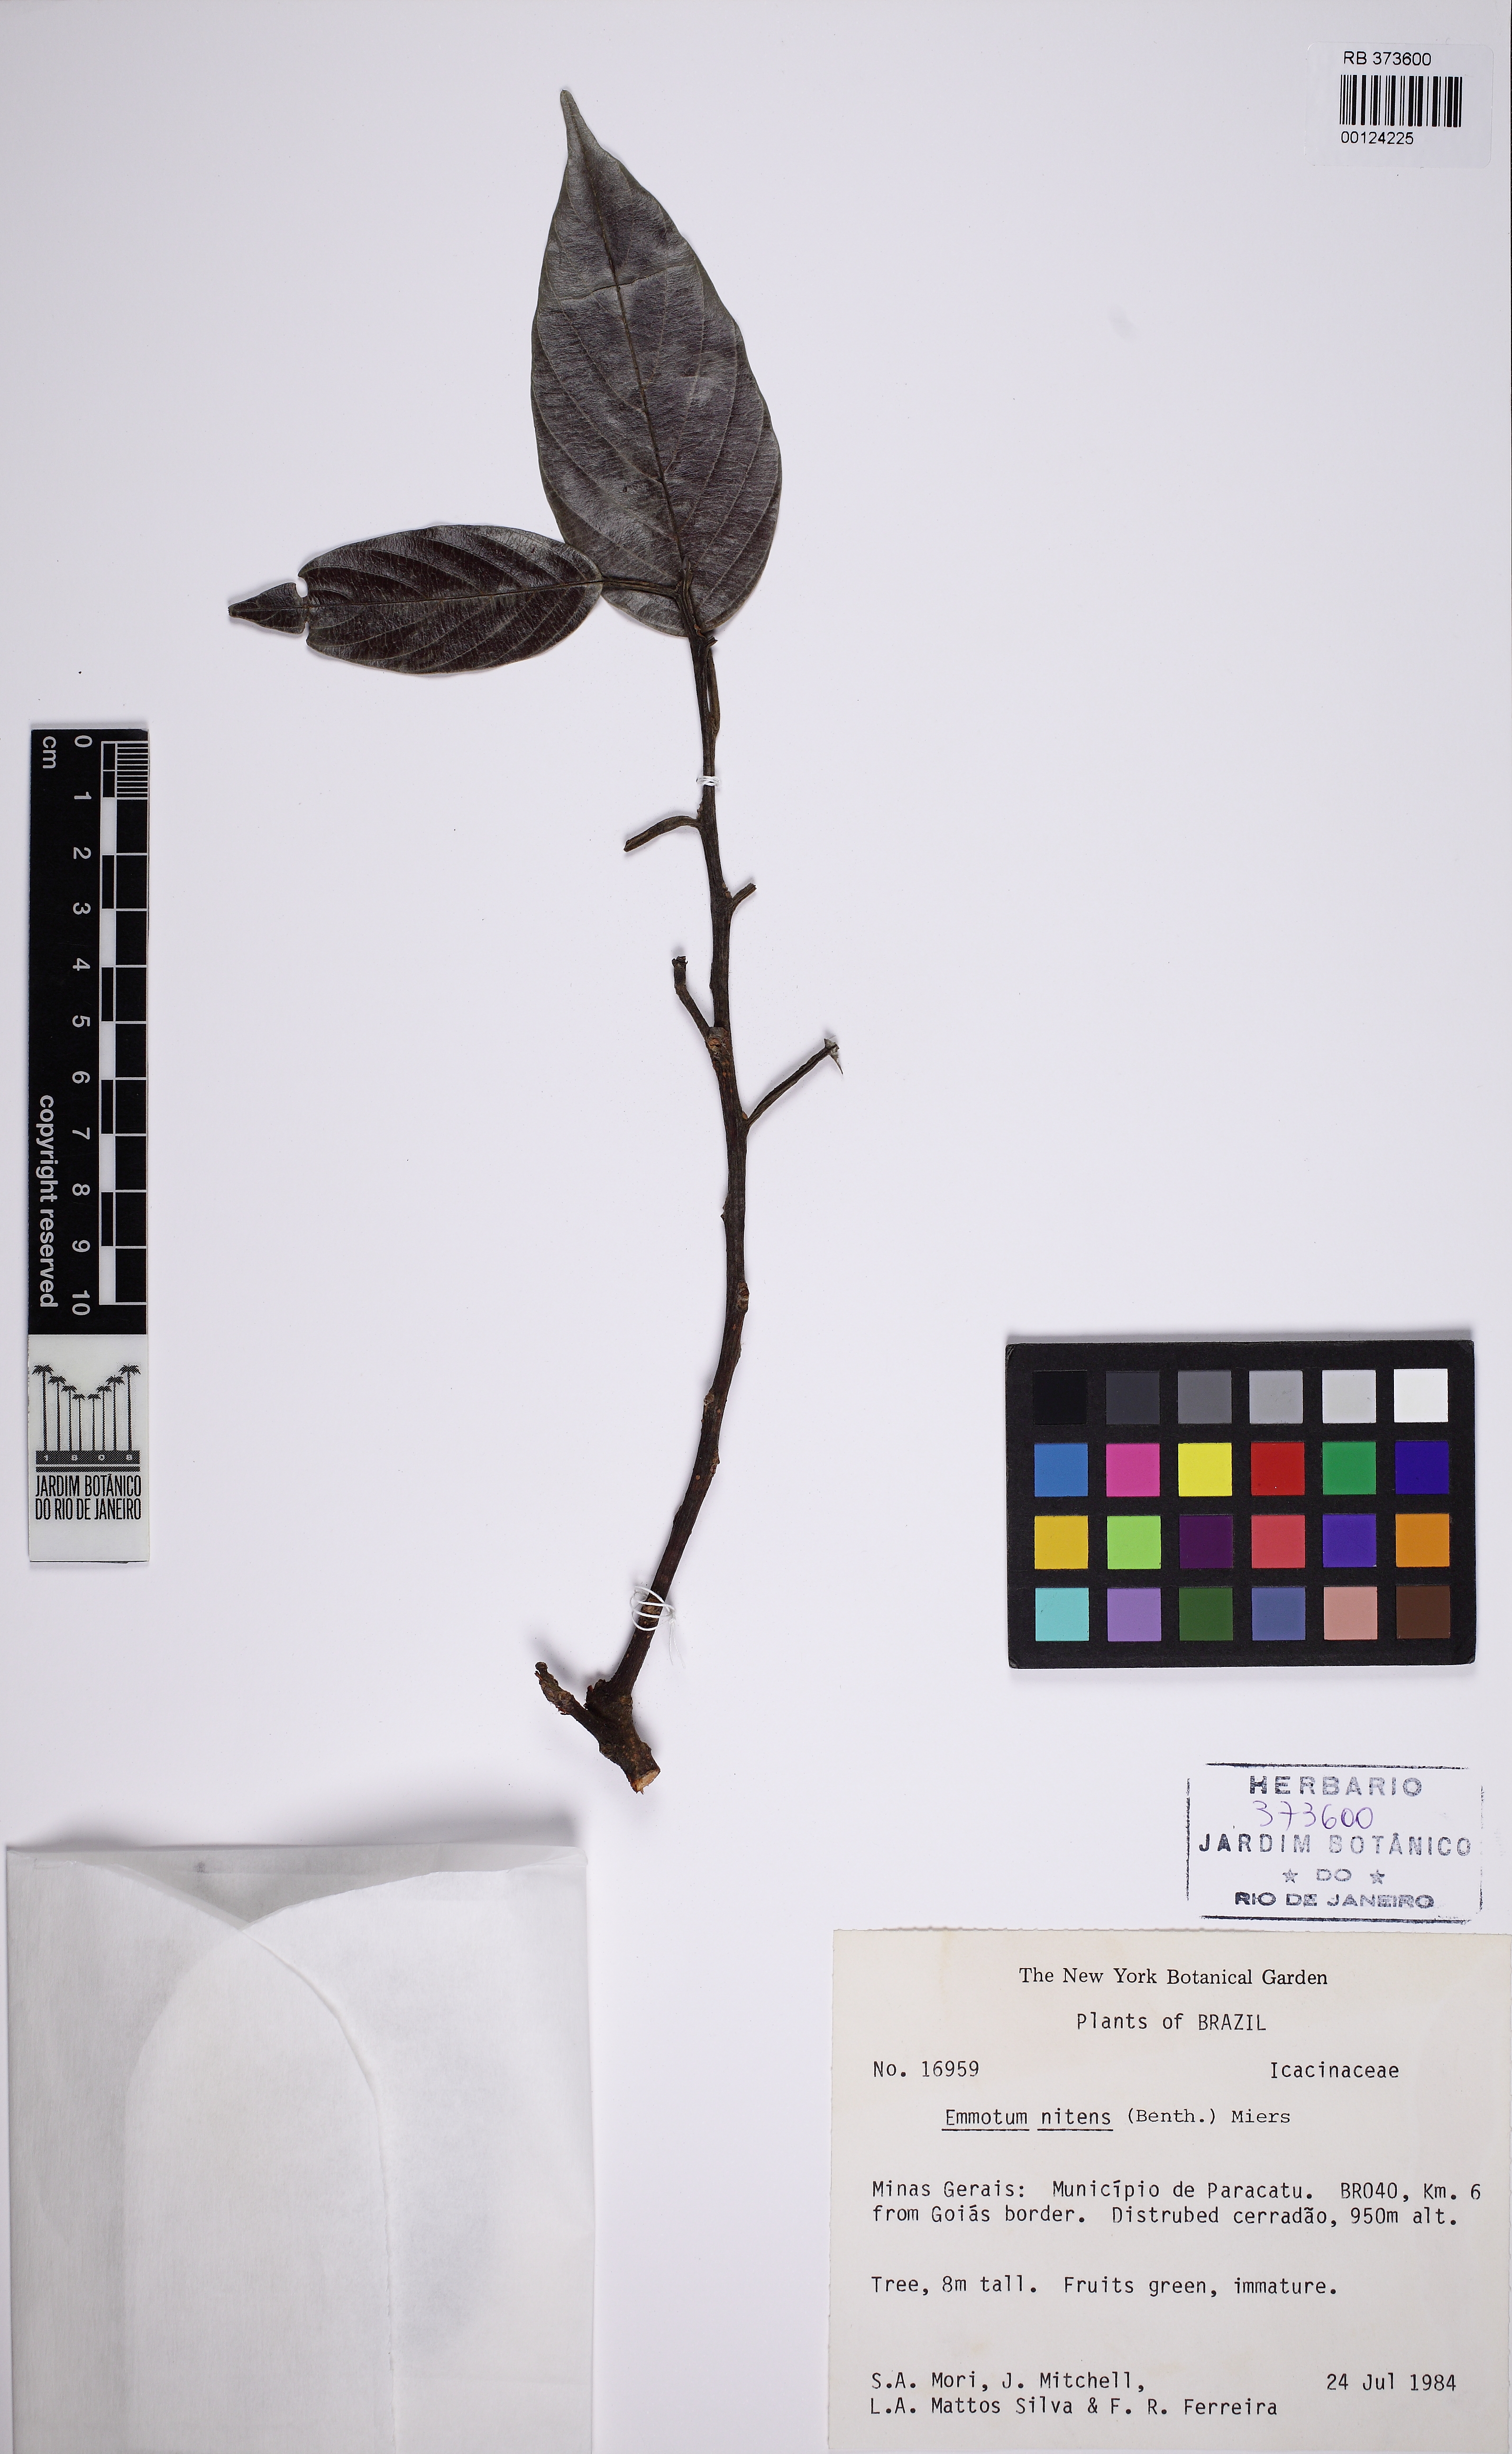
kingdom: Plantae
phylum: Tracheophyta
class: Magnoliopsida
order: Metteniusales
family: Metteniusaceae
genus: Emmotum
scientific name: Emmotum nitens
